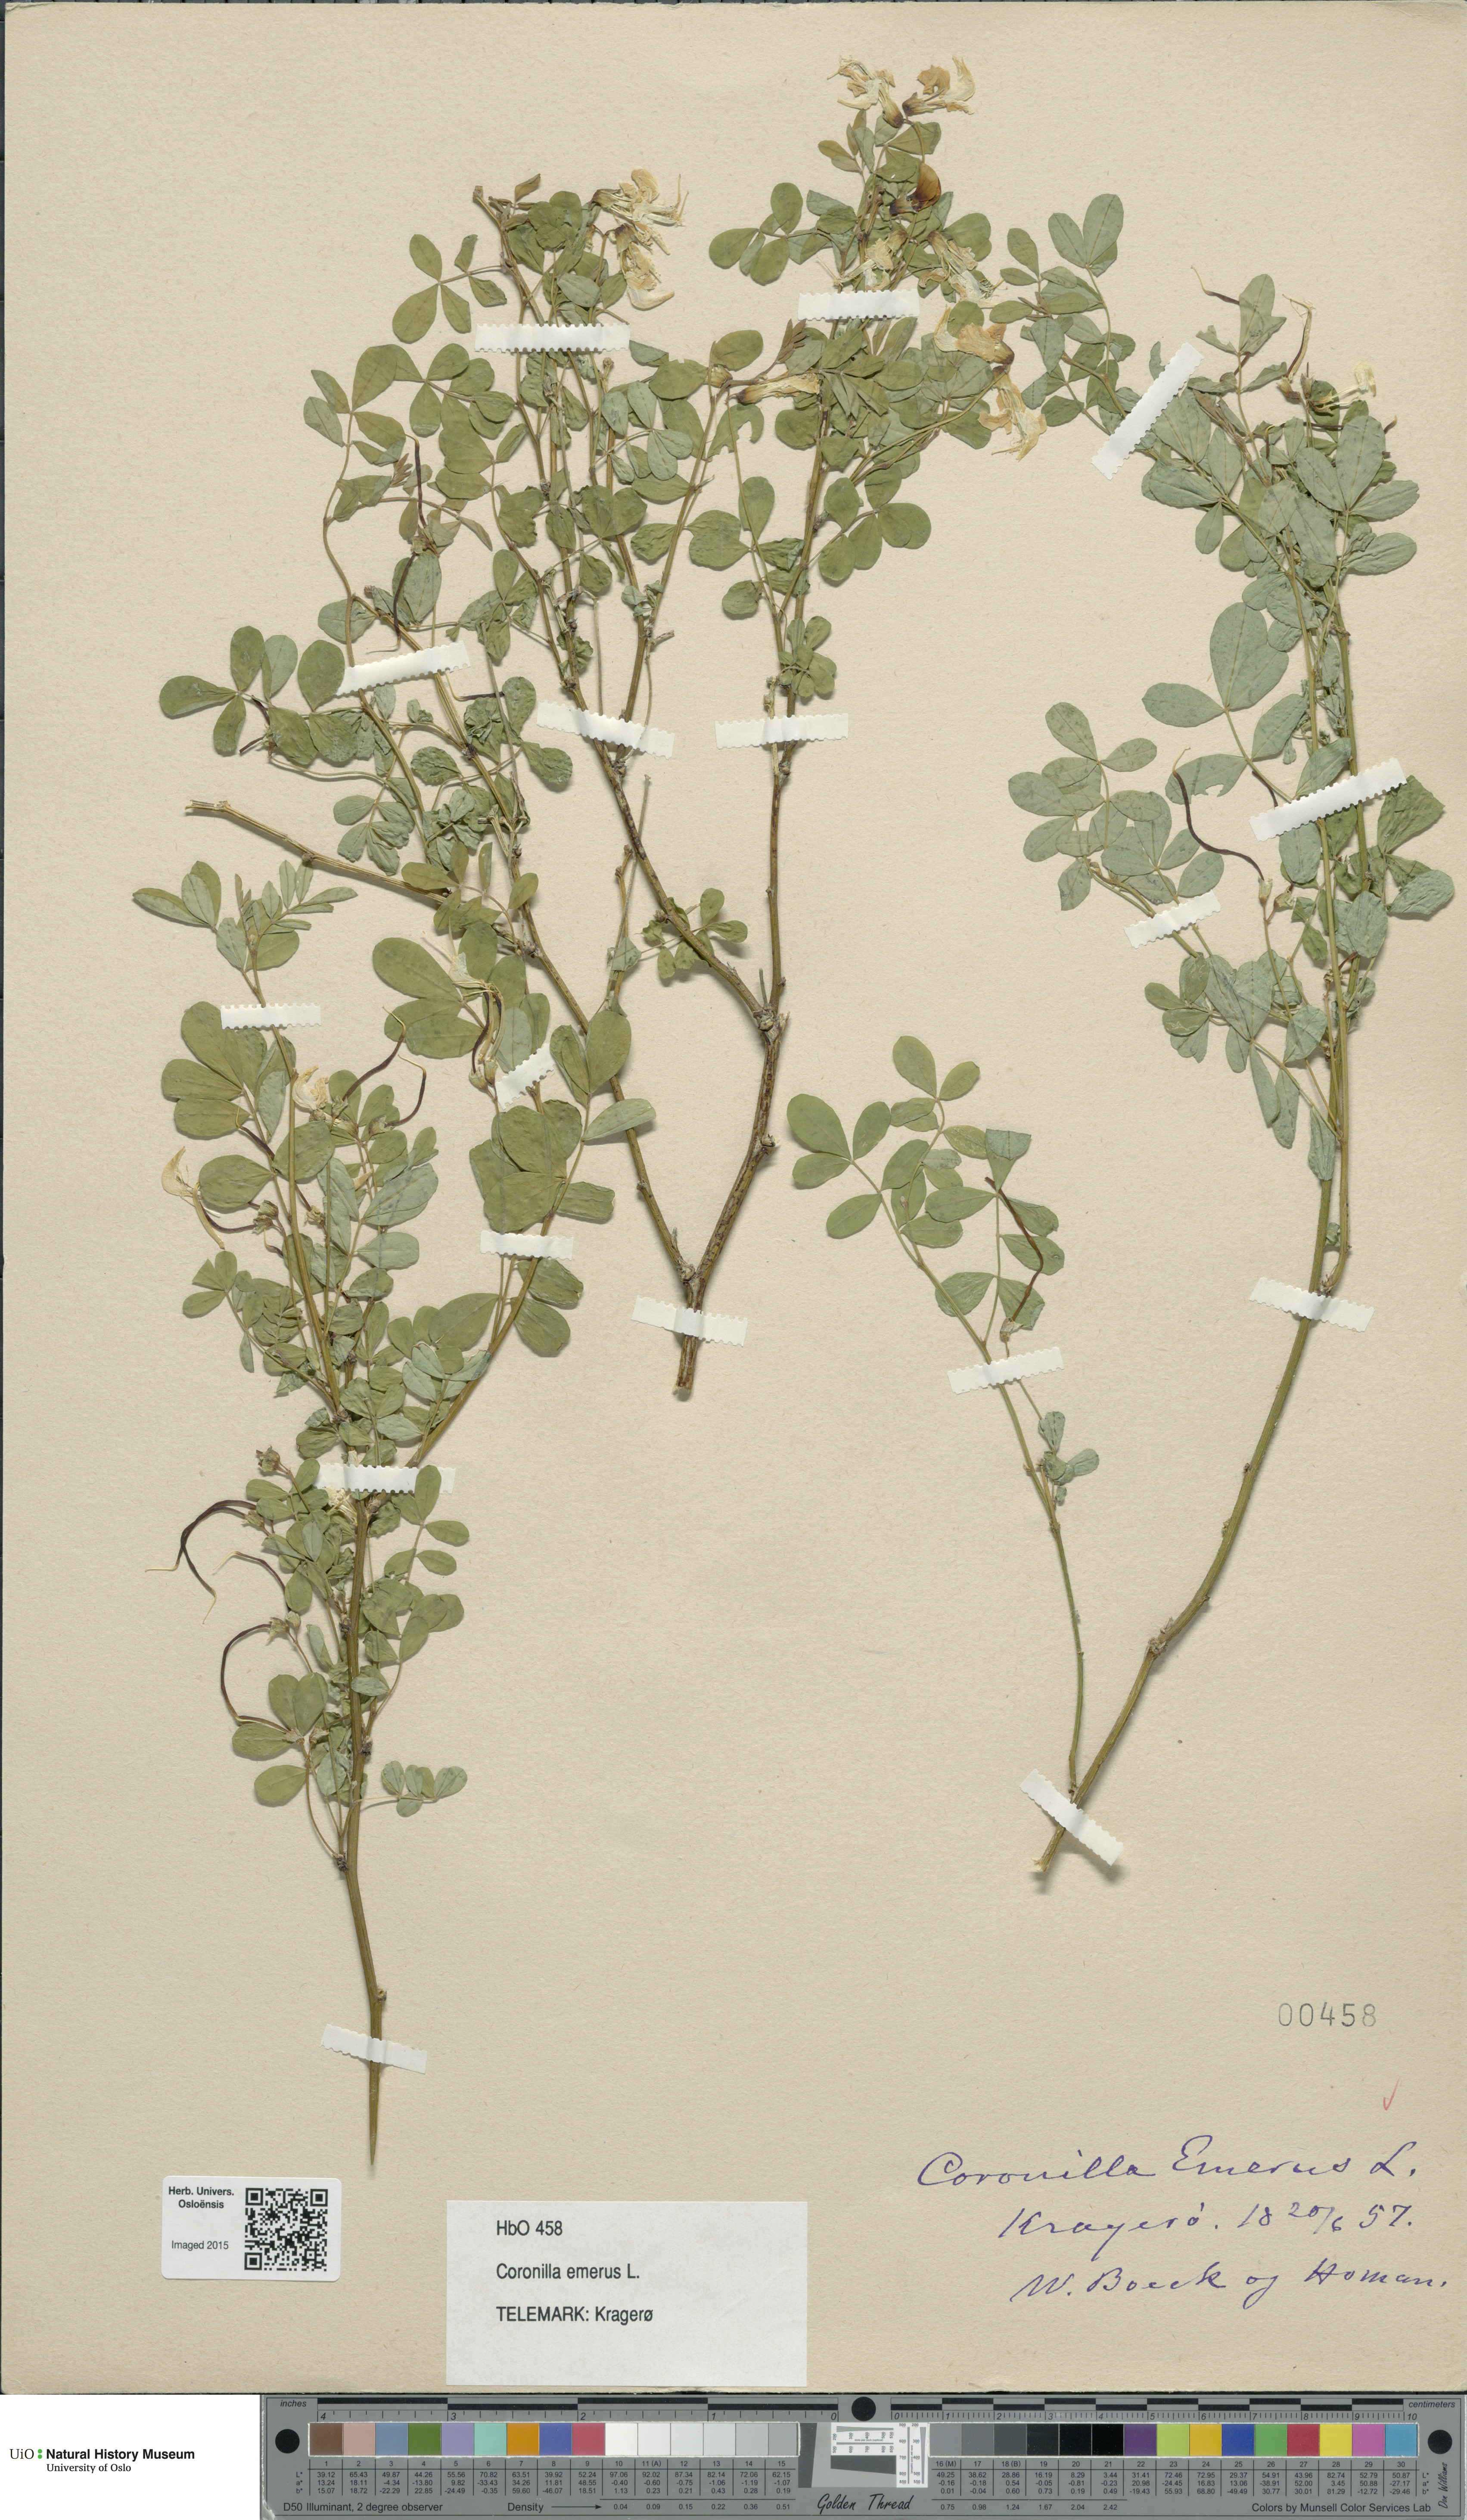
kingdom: Plantae
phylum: Tracheophyta
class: Magnoliopsida
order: Fabales
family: Fabaceae
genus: Hippocrepis
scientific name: Hippocrepis emerus
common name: Scorpion senna
